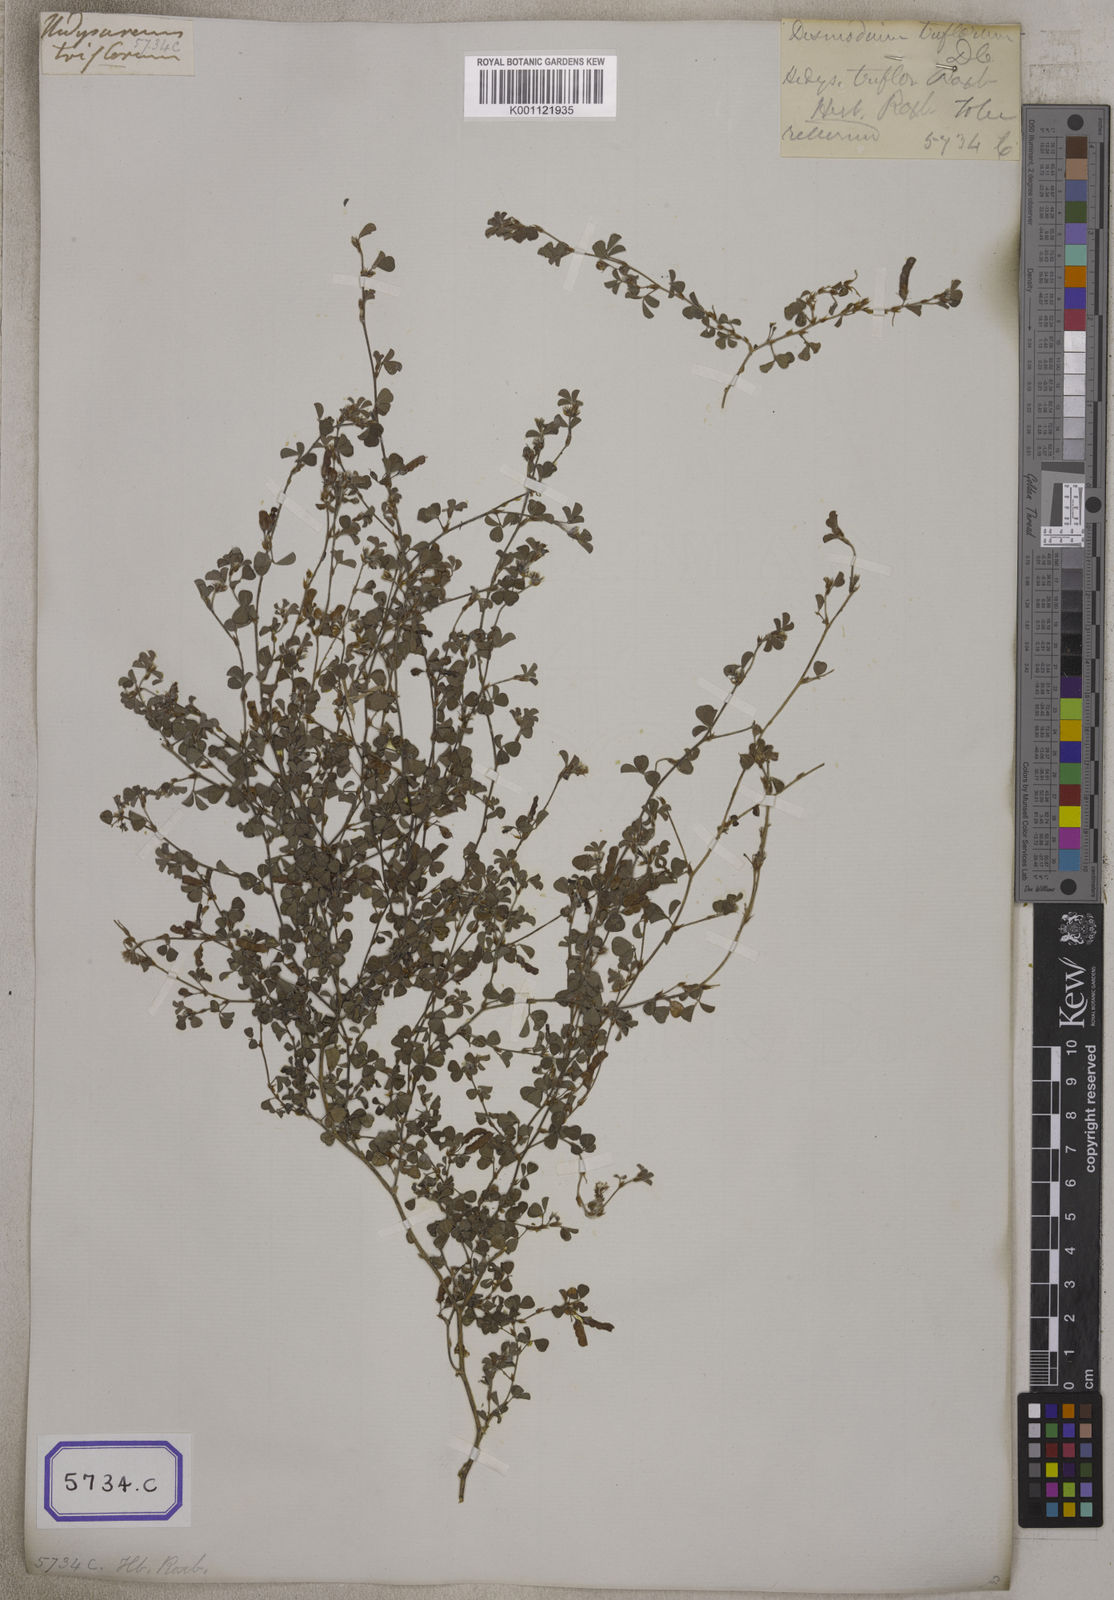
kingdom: Plantae
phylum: Tracheophyta
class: Magnoliopsida
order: Fabales
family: Fabaceae
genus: Desmodium
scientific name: Desmodium
